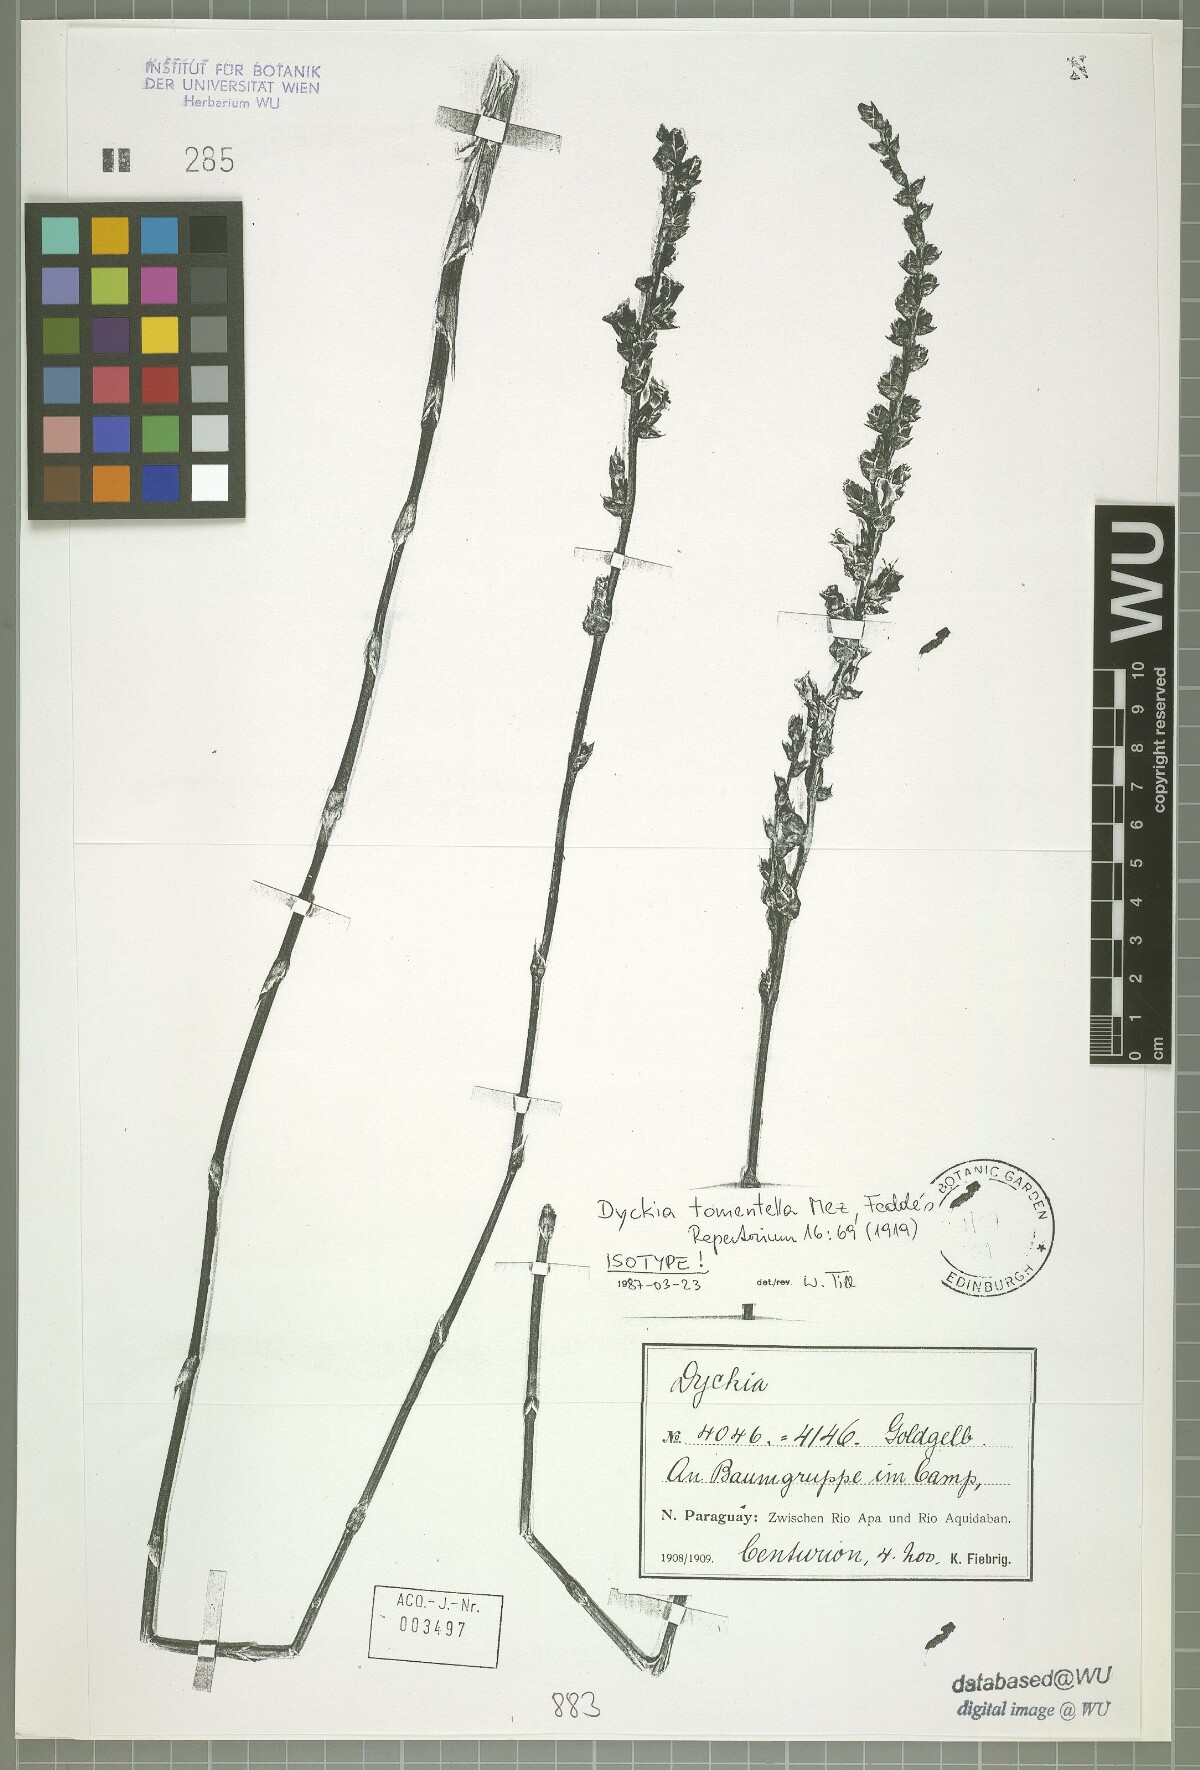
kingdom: Plantae
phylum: Tracheophyta
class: Liliopsida
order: Poales
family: Bromeliaceae
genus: Dyckia
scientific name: Dyckia tomentella
